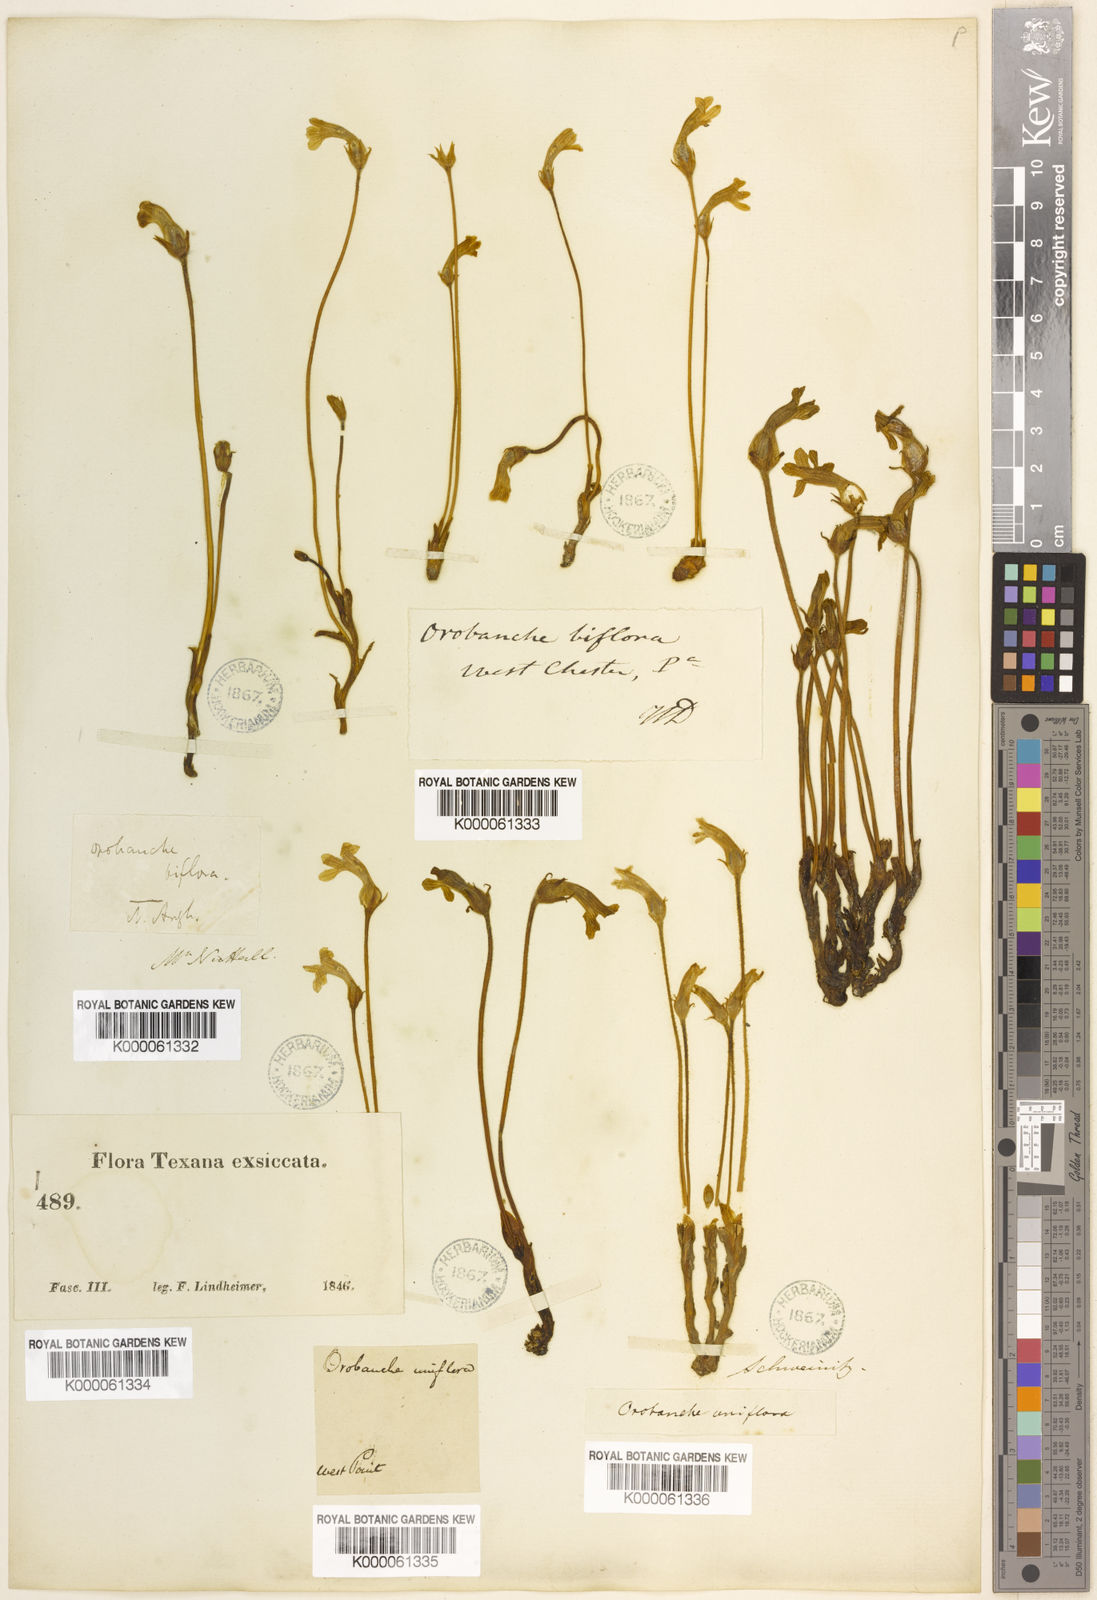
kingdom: Plantae
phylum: Tracheophyta
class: Magnoliopsida
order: Lamiales
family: Orobanchaceae
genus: Aphyllon
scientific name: Aphyllon uniflorum
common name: One-flowered broomrape
